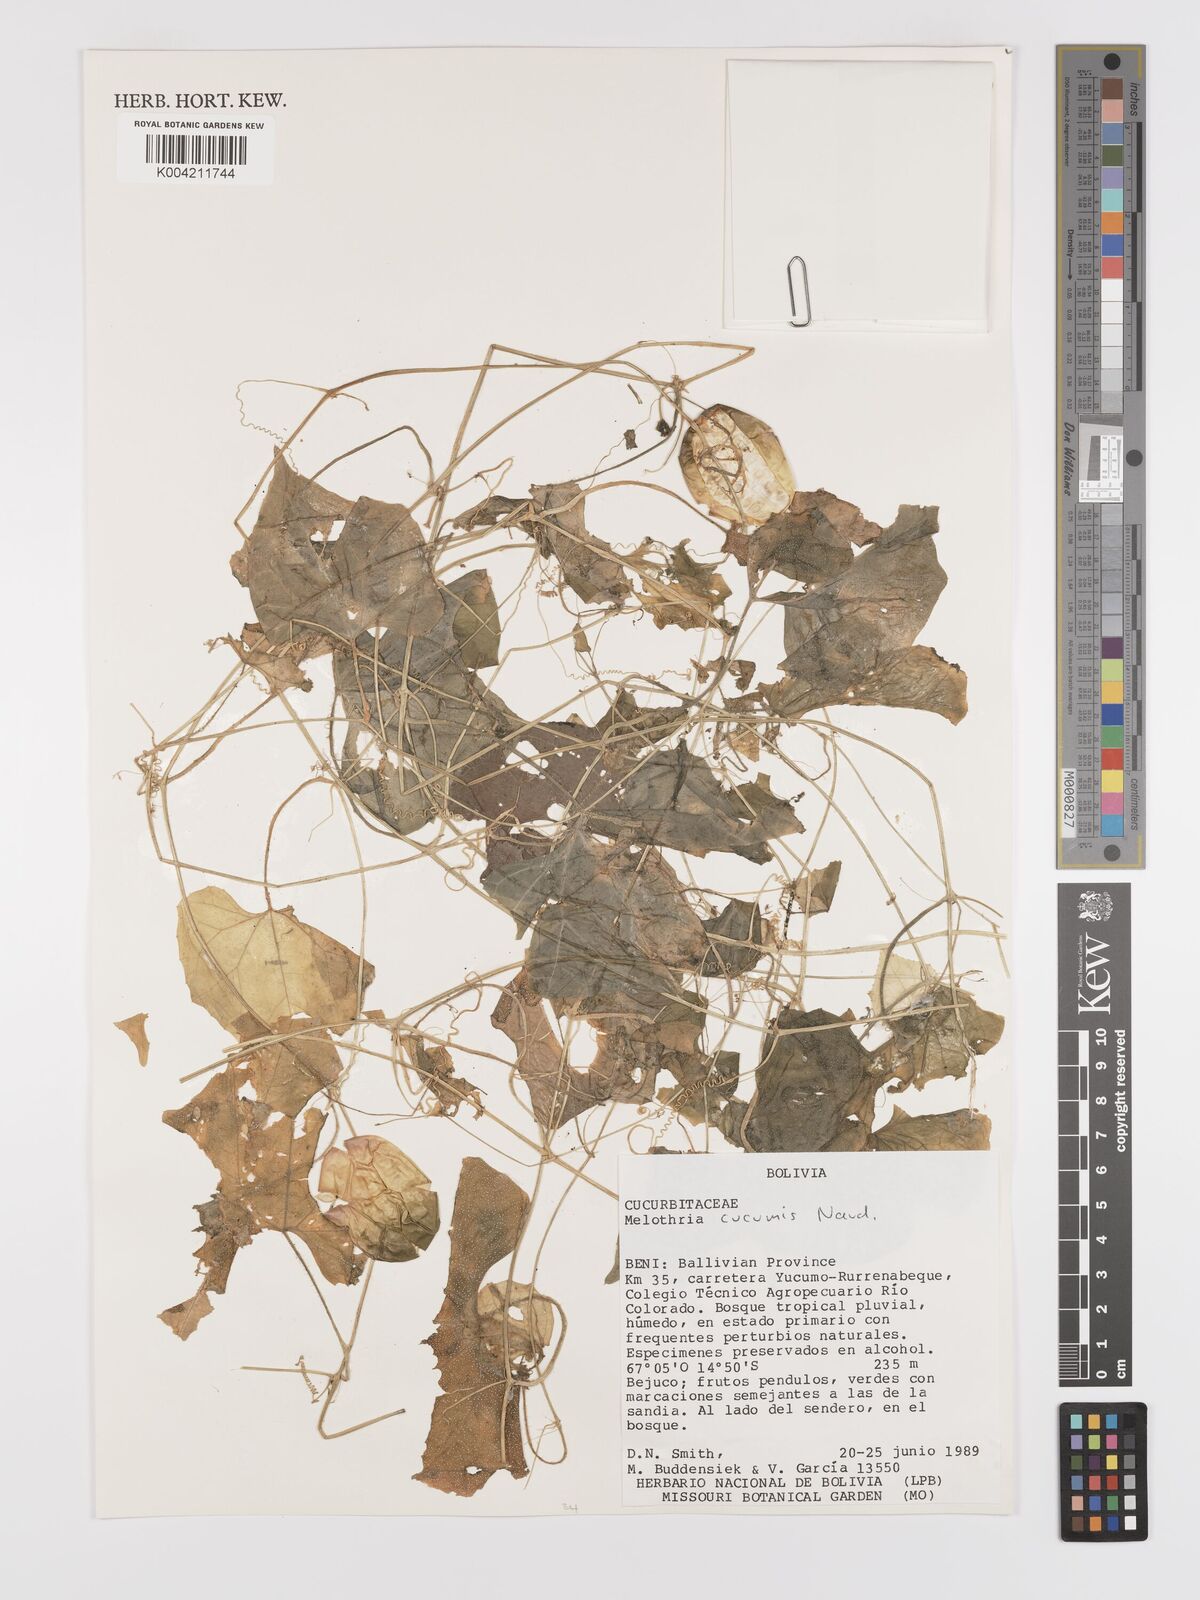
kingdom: Plantae
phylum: Tracheophyta
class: Magnoliopsida
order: Cucurbitales
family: Cucurbitaceae
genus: Melothria
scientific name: Melothria cucumis
